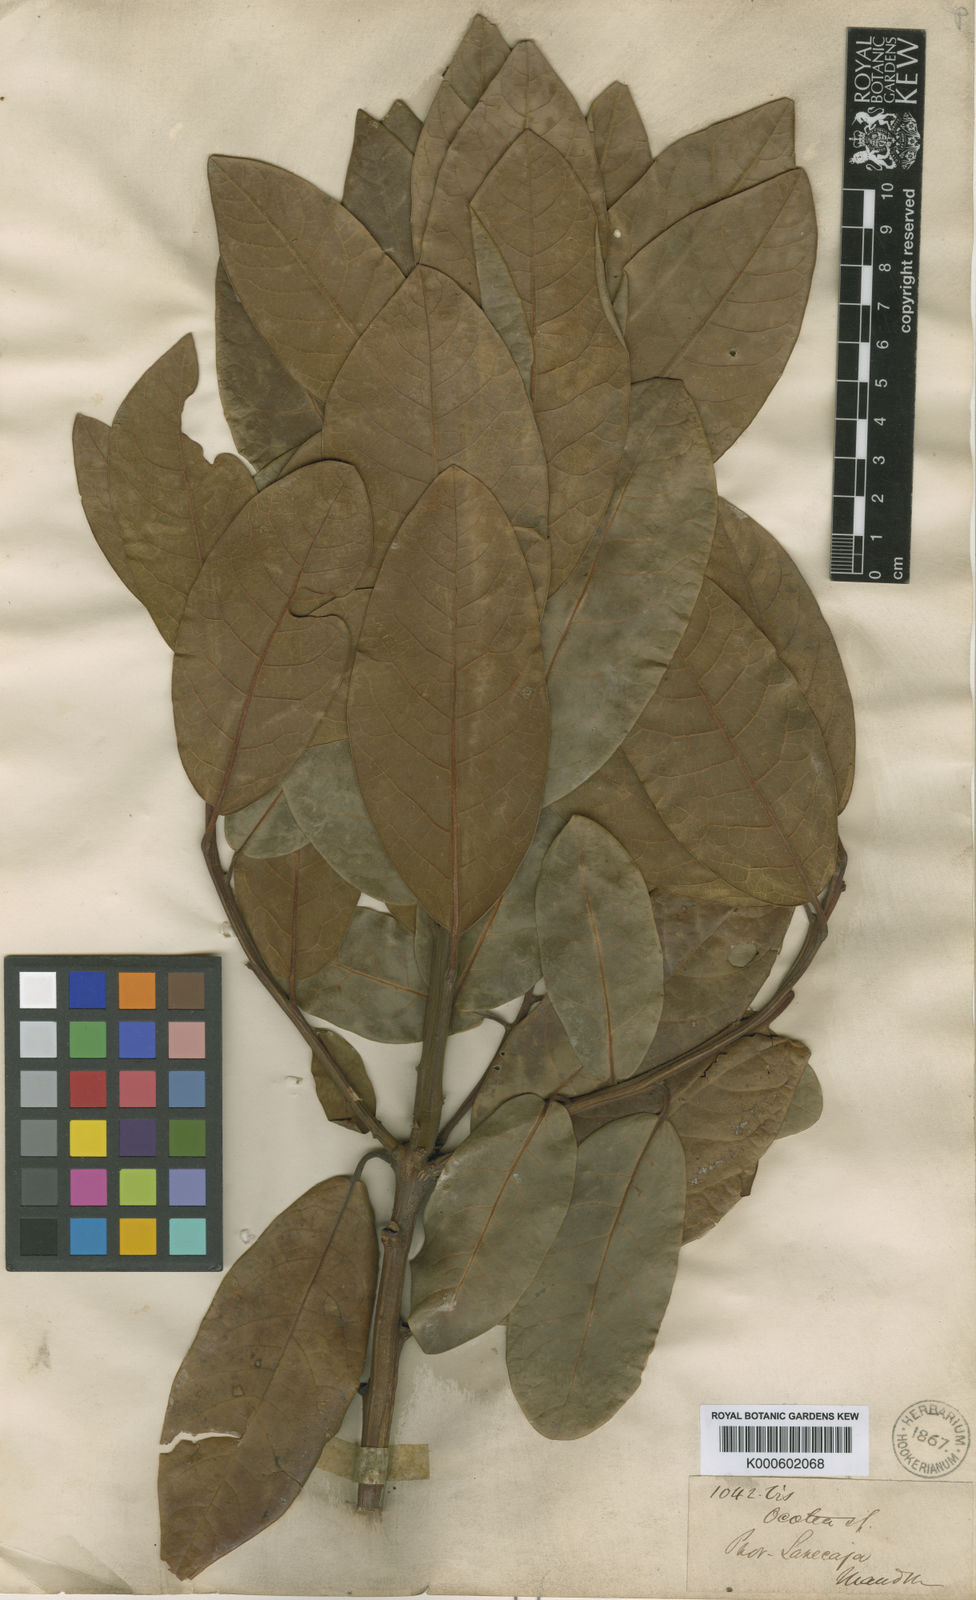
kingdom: Plantae
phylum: Tracheophyta
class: Magnoliopsida
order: Laurales
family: Lauraceae
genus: Persea
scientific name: Persea subcordata
